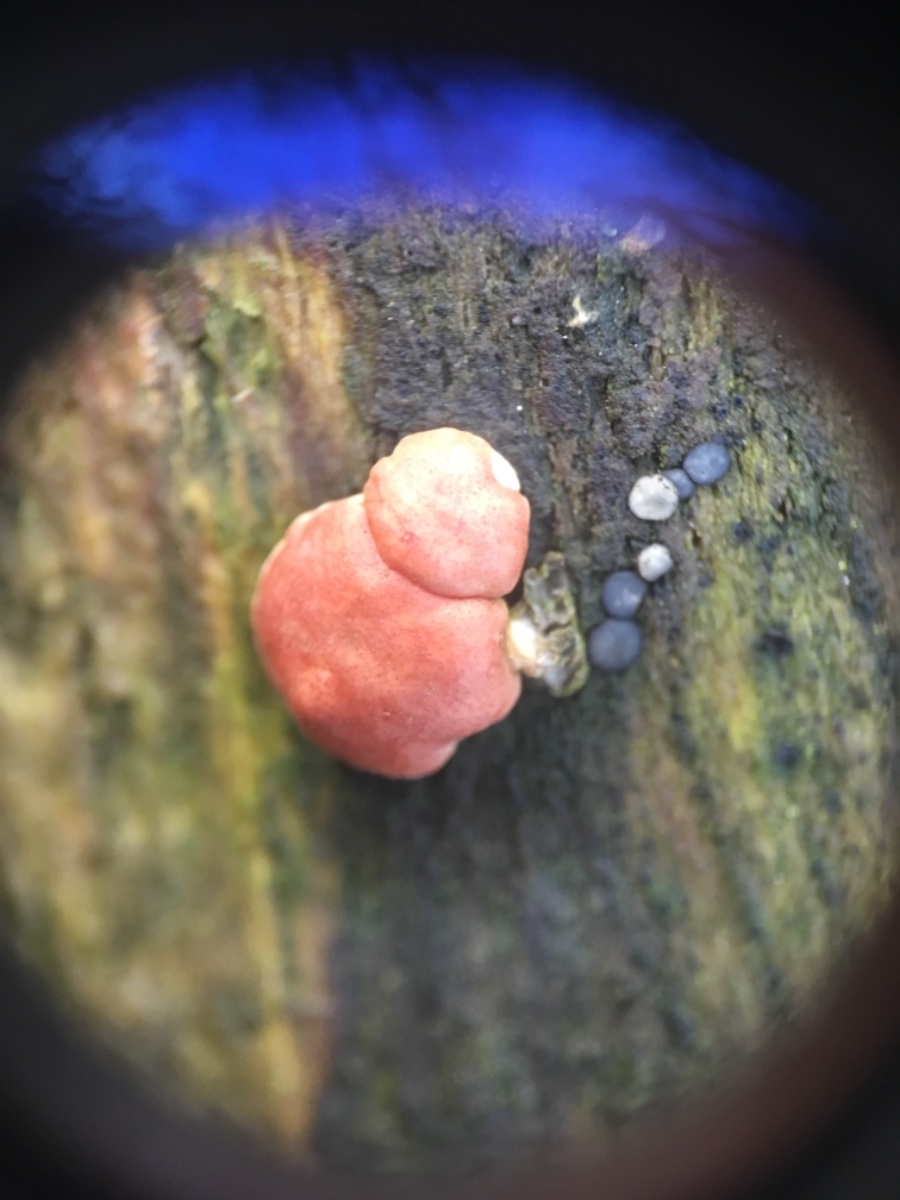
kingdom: Fungi
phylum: Ascomycota
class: Sordariomycetes
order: Hypocreales
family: Hypocreaceae
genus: Trichoderma
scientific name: Trichoderma europaeum
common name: rosabrun kødkerne
